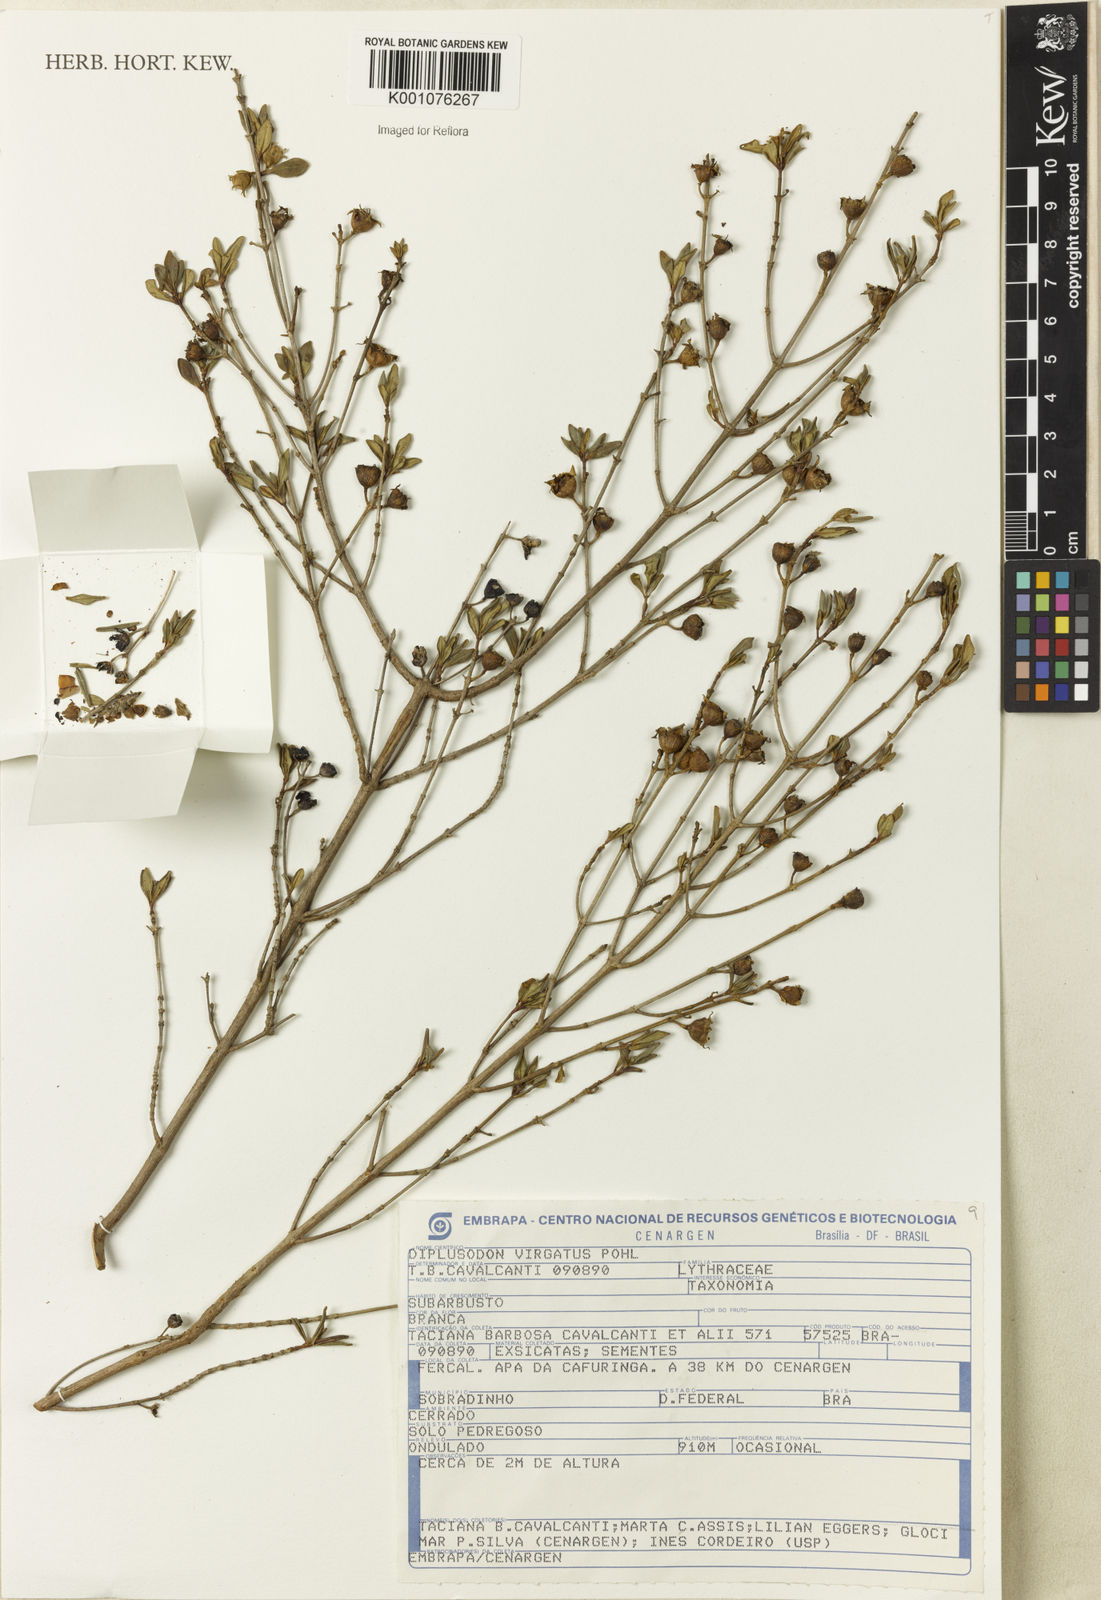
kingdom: Plantae
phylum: Tracheophyta
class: Magnoliopsida
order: Myrtales
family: Lythraceae
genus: Diplusodon
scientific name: Diplusodon virgatus
